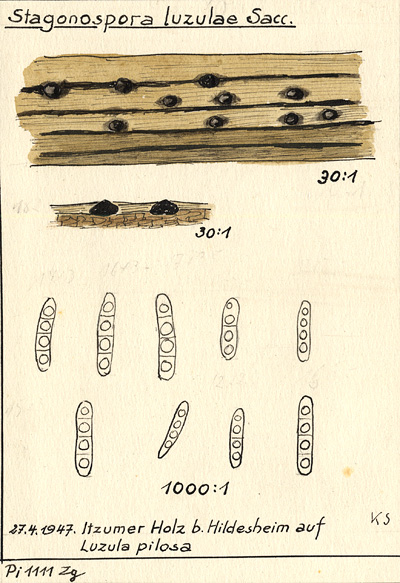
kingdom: Fungi
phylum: Ascomycota
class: Dothideomycetes
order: Pleosporales
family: Phaeosphaeriaceae
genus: Stagonospora
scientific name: Stagonospora luzulae
